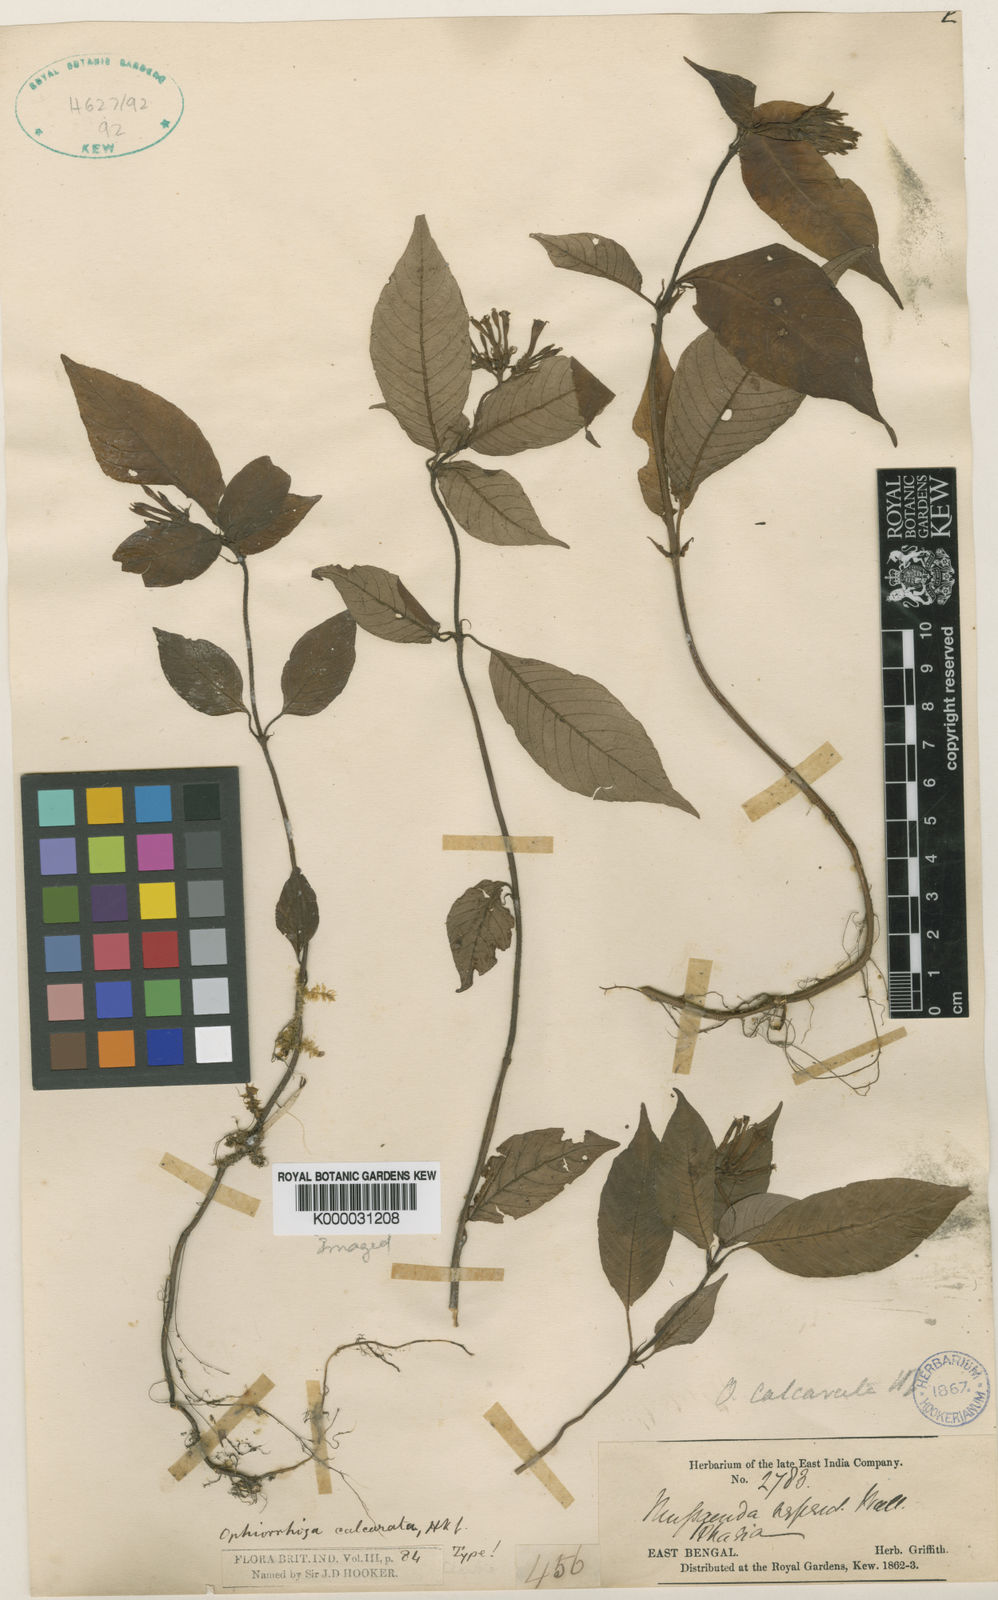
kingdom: Plantae
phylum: Tracheophyta
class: Magnoliopsida
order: Gentianales
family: Rubiaceae
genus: Ophiorrhiza
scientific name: Ophiorrhiza repens
